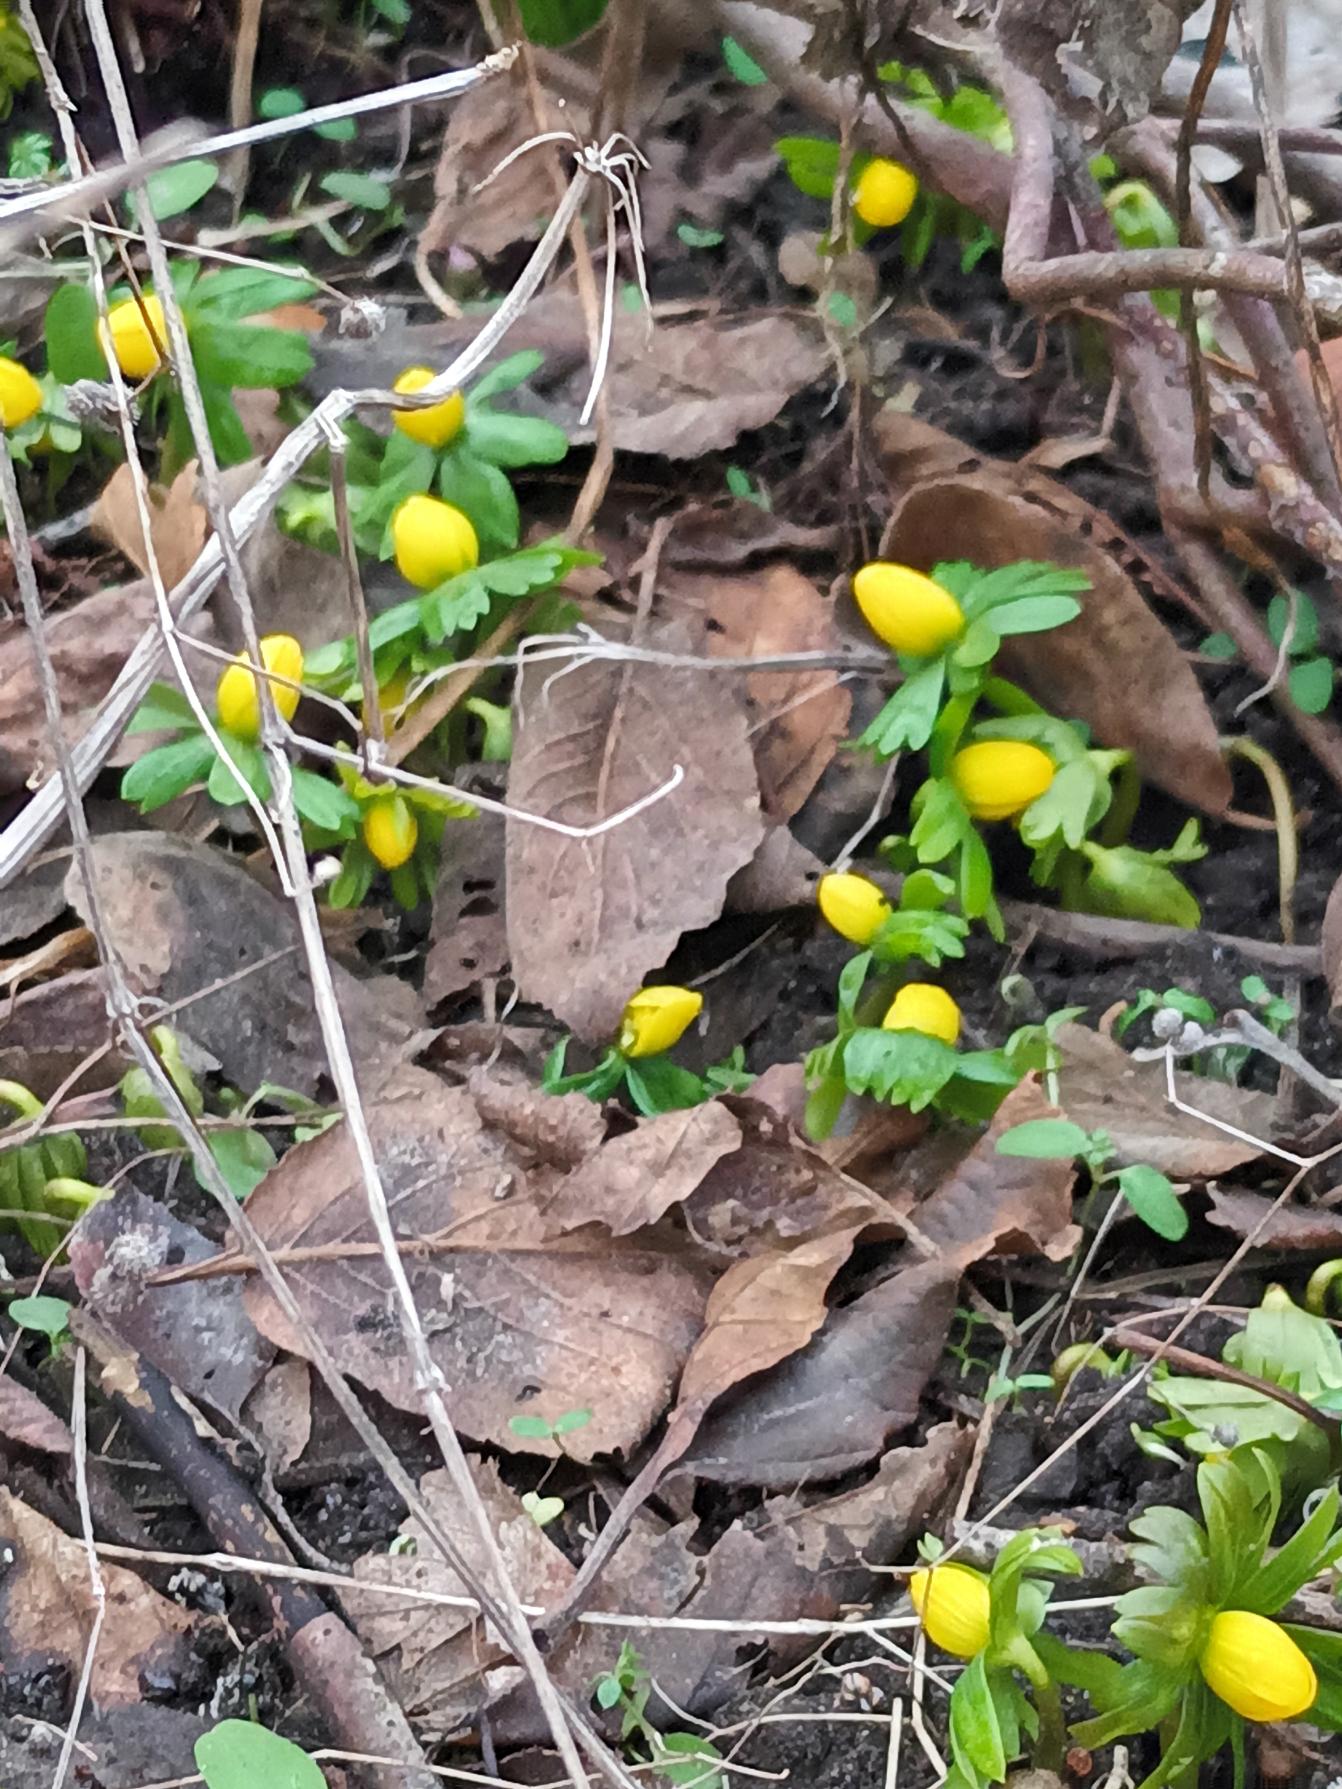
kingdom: Plantae
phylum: Tracheophyta
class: Magnoliopsida
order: Ranunculales
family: Ranunculaceae
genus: Eranthis
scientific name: Eranthis hyemalis
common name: Erantis
